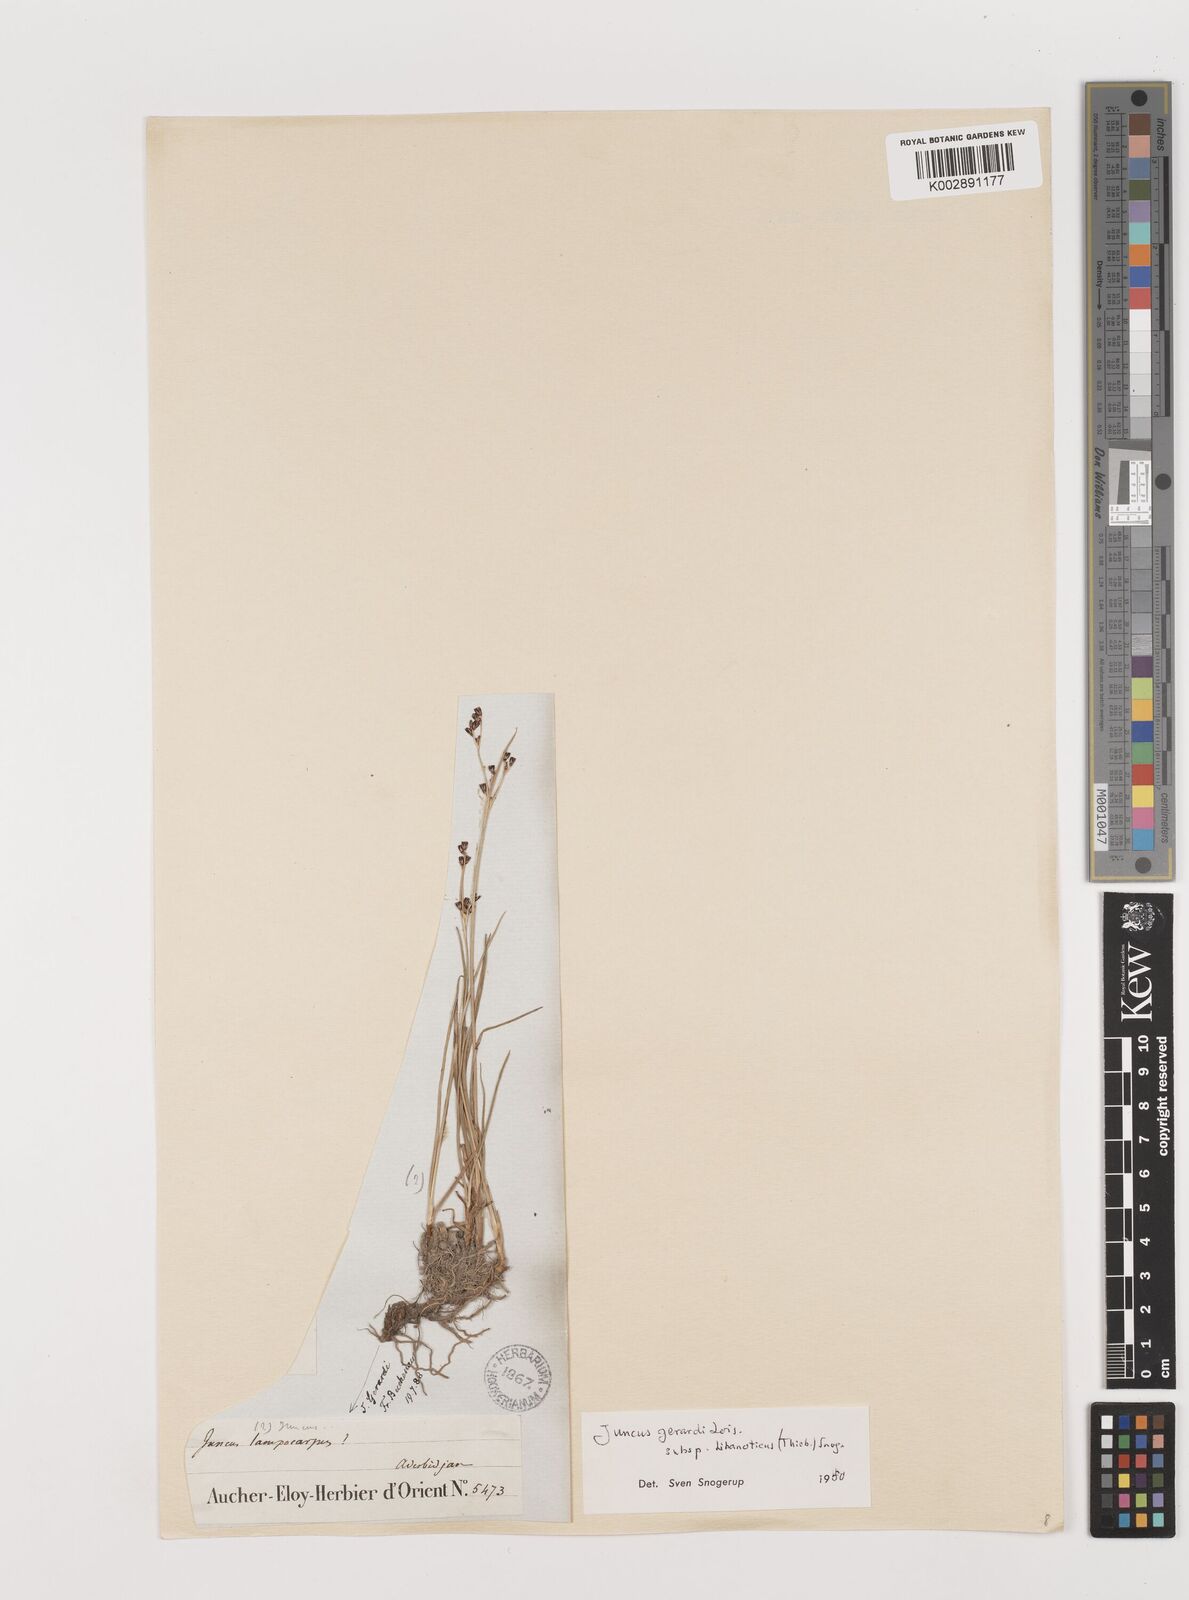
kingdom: Plantae
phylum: Tracheophyta
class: Liliopsida
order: Poales
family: Juncaceae
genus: Juncus
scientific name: Juncus persicus
